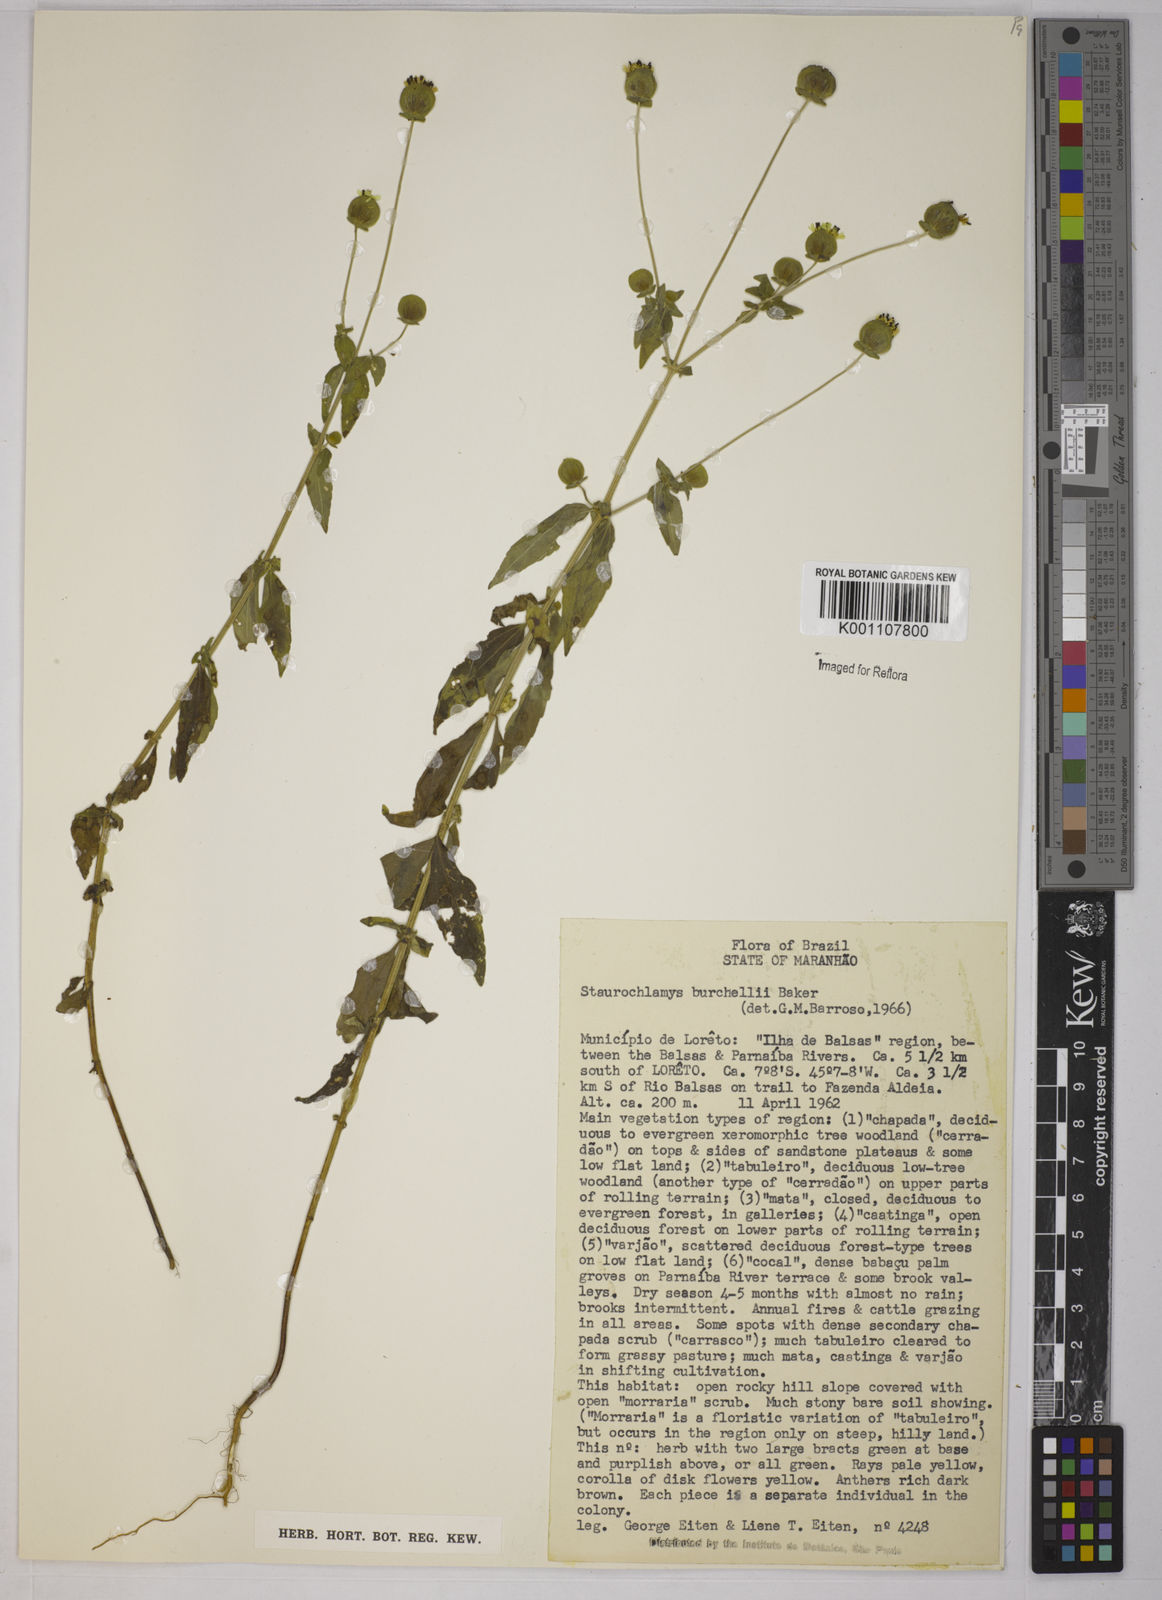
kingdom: Plantae
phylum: Tracheophyta
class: Magnoliopsida
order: Asterales
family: Asteraceae
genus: Staurochlamys
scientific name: Staurochlamys burchellii
